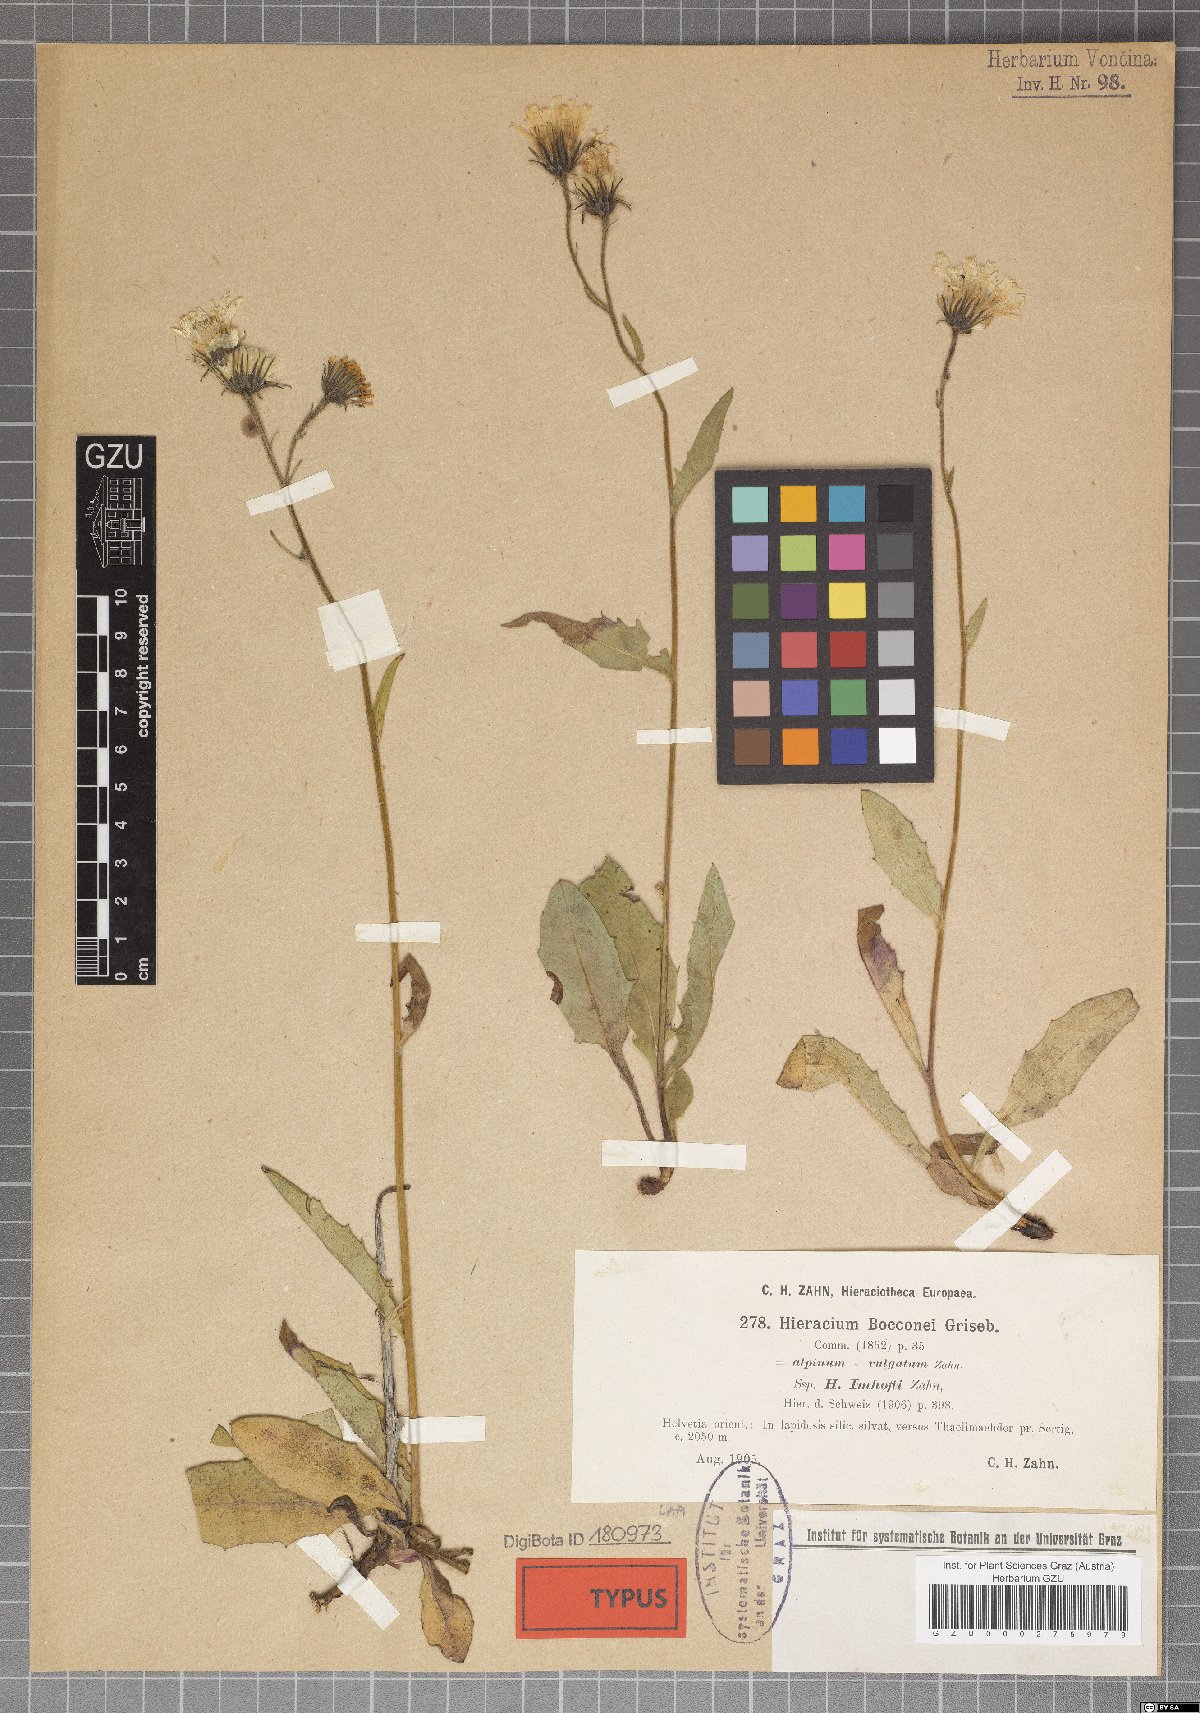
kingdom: Plantae
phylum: Tracheophyta
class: Magnoliopsida
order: Asterales
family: Asteraceae
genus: Hieracium
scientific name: Hieracium bocconei
